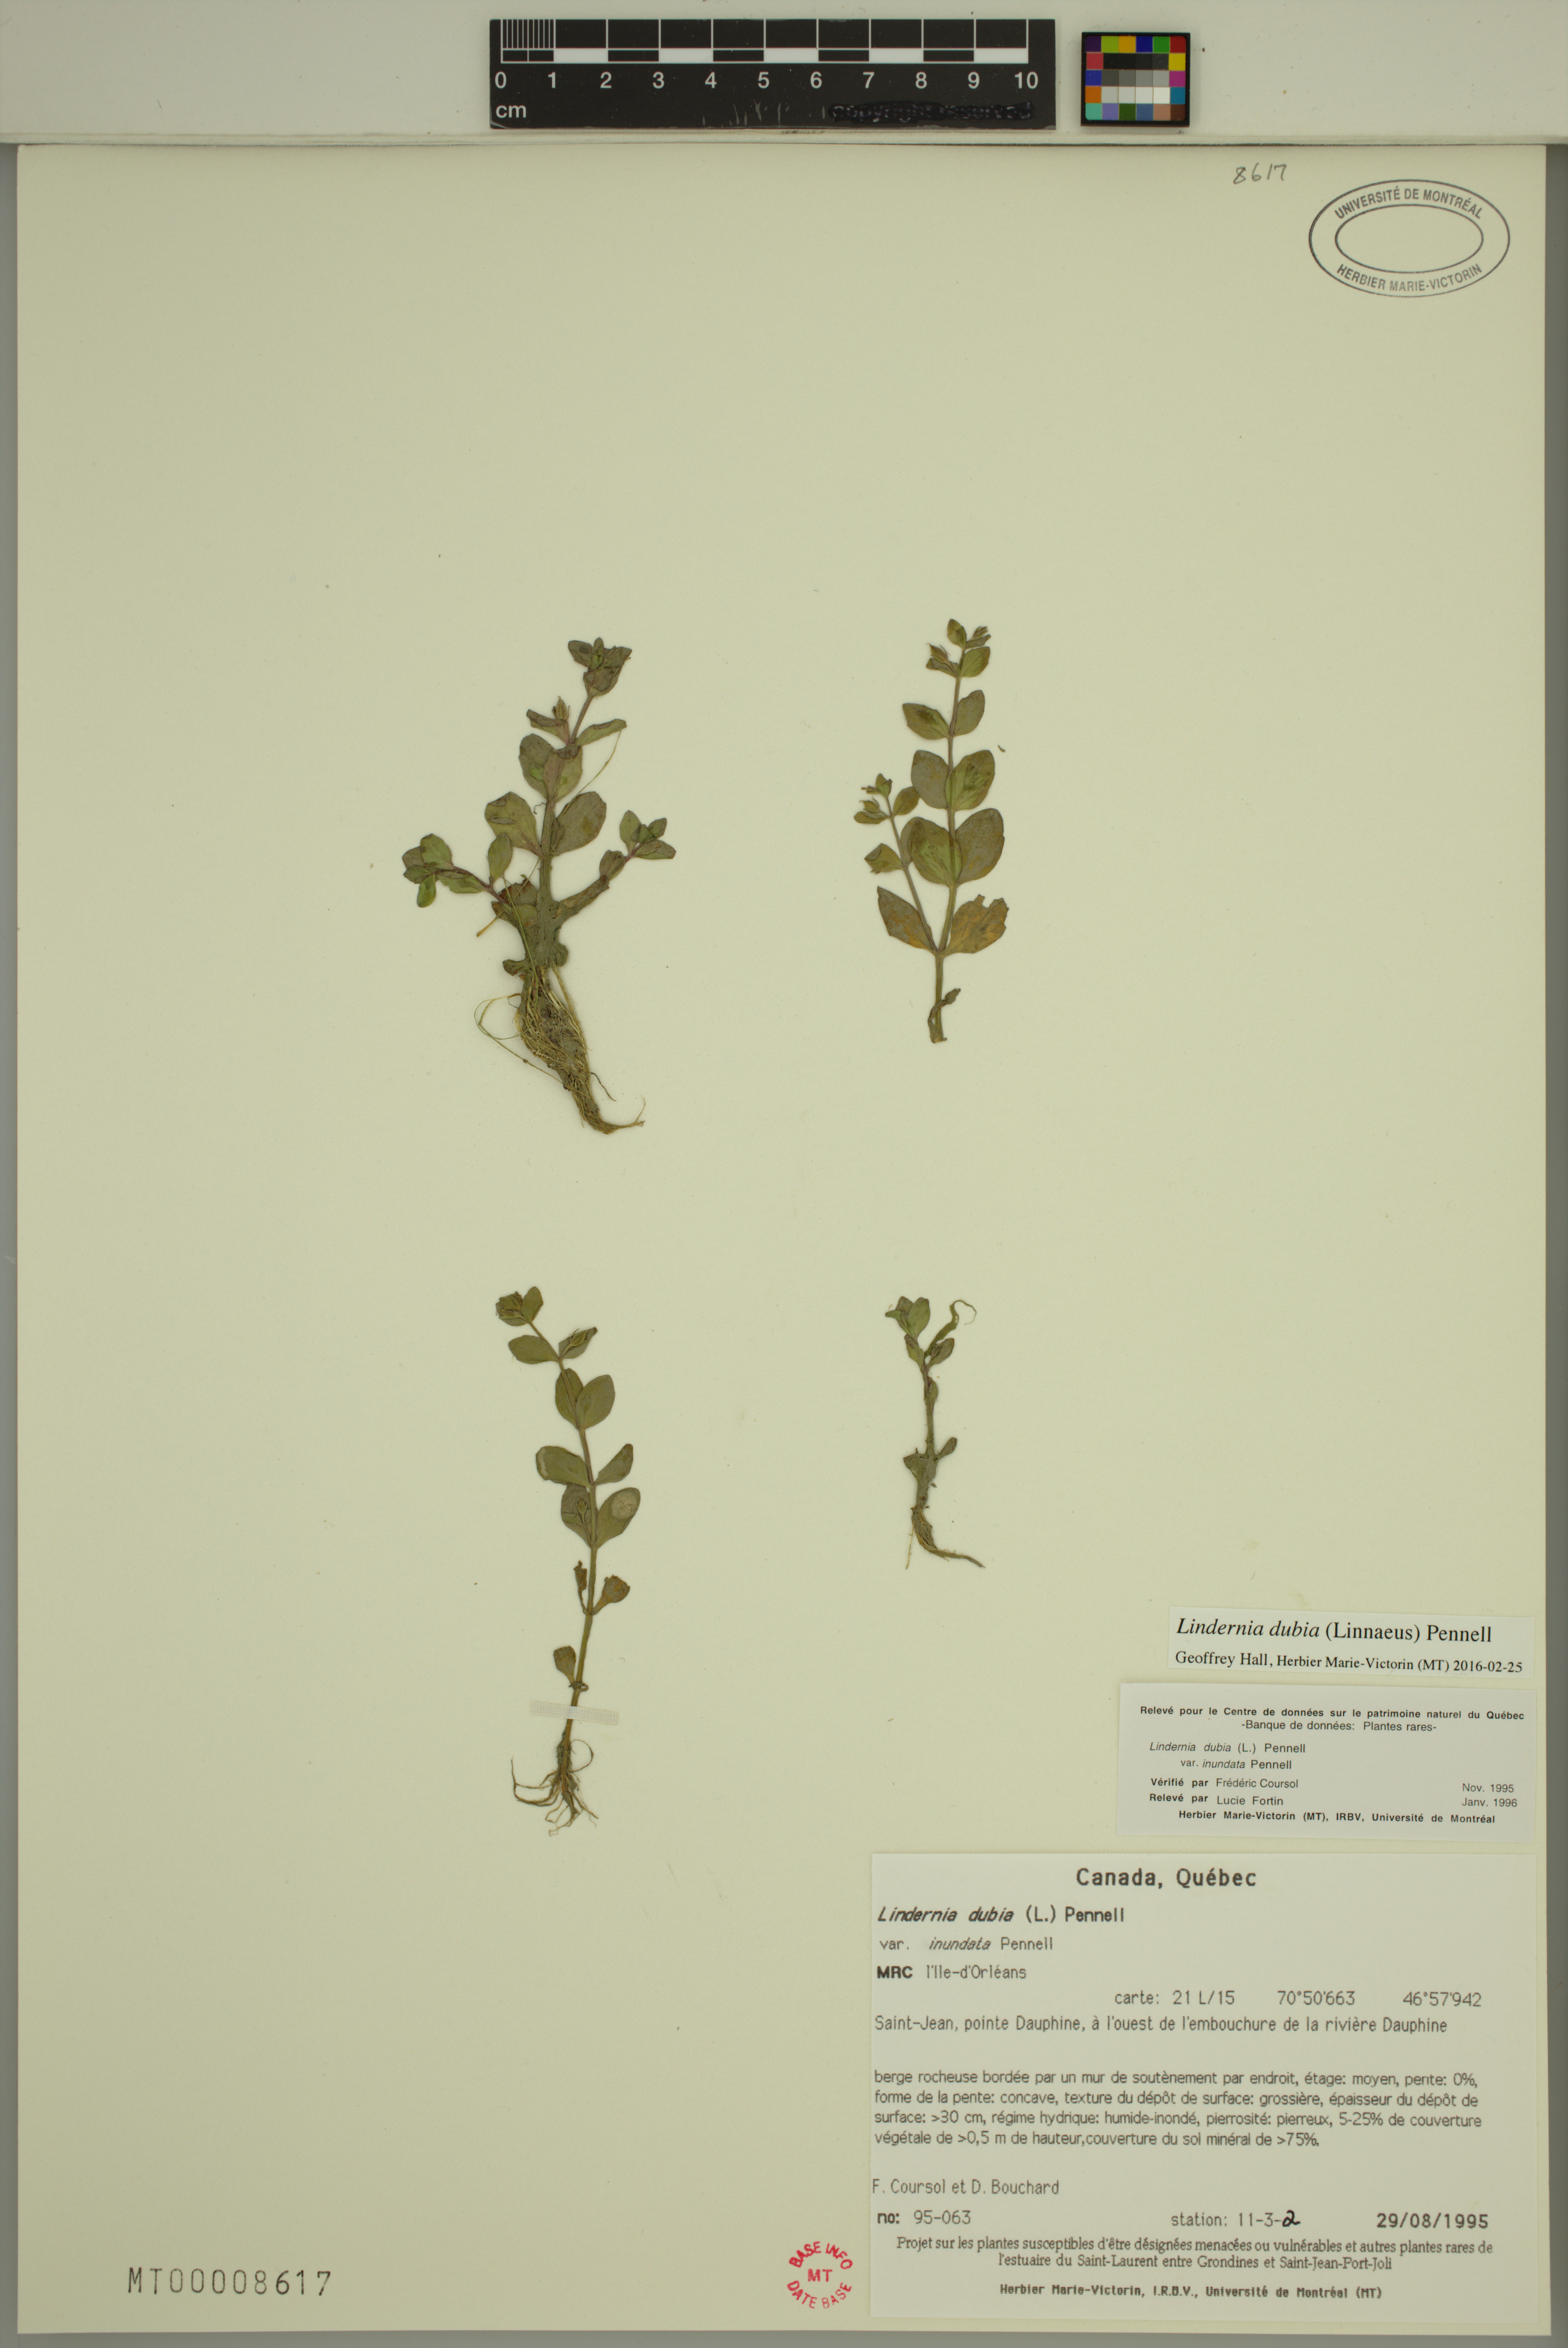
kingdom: Plantae
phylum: Tracheophyta
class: Magnoliopsida
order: Lamiales
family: Linderniaceae
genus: Lindernia
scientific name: Lindernia dubia
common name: Annual false pimpernel
